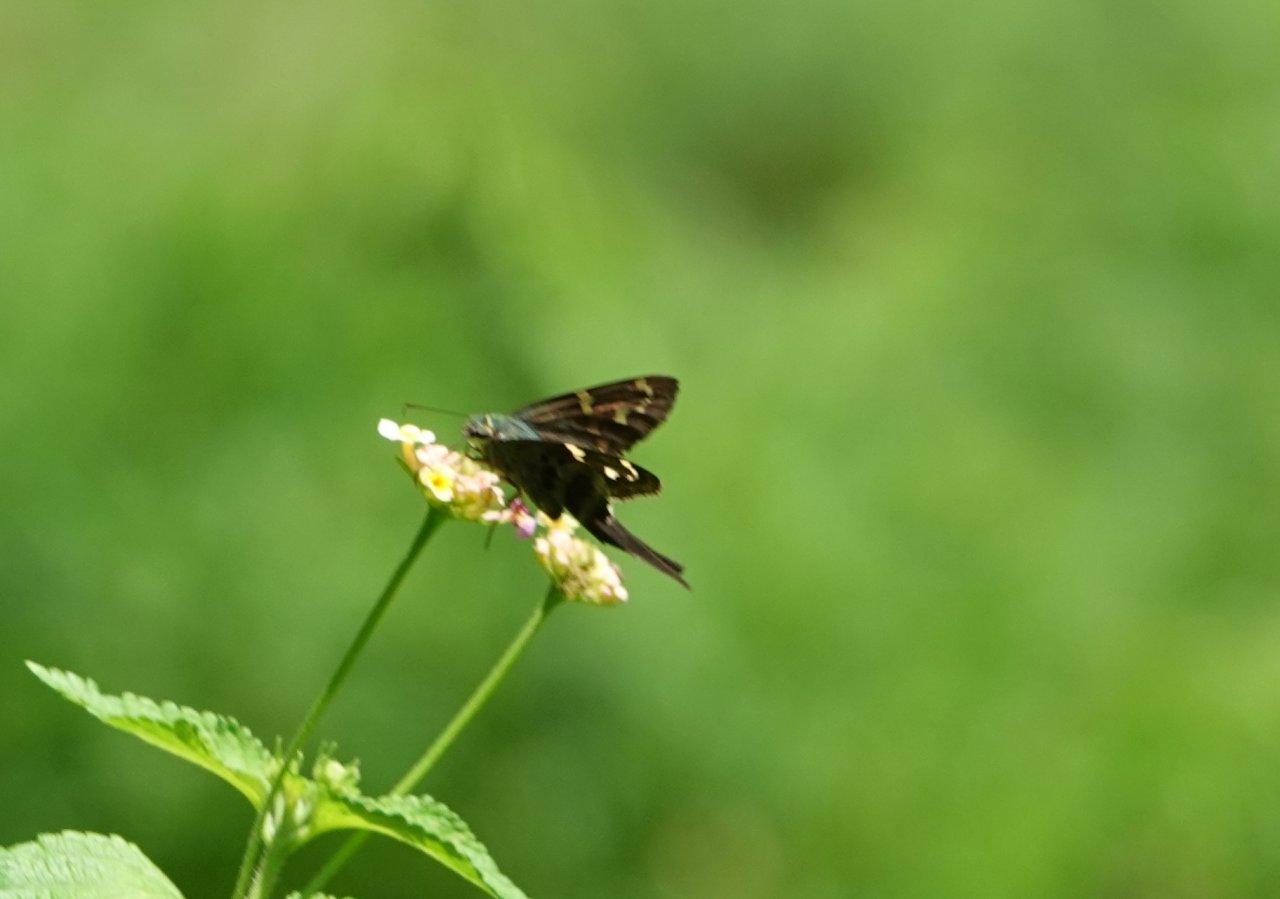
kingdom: Animalia
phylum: Arthropoda
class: Insecta
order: Lepidoptera
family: Hesperiidae
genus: Urbanus
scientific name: Urbanus proteus
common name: Long-tailed Skipper
